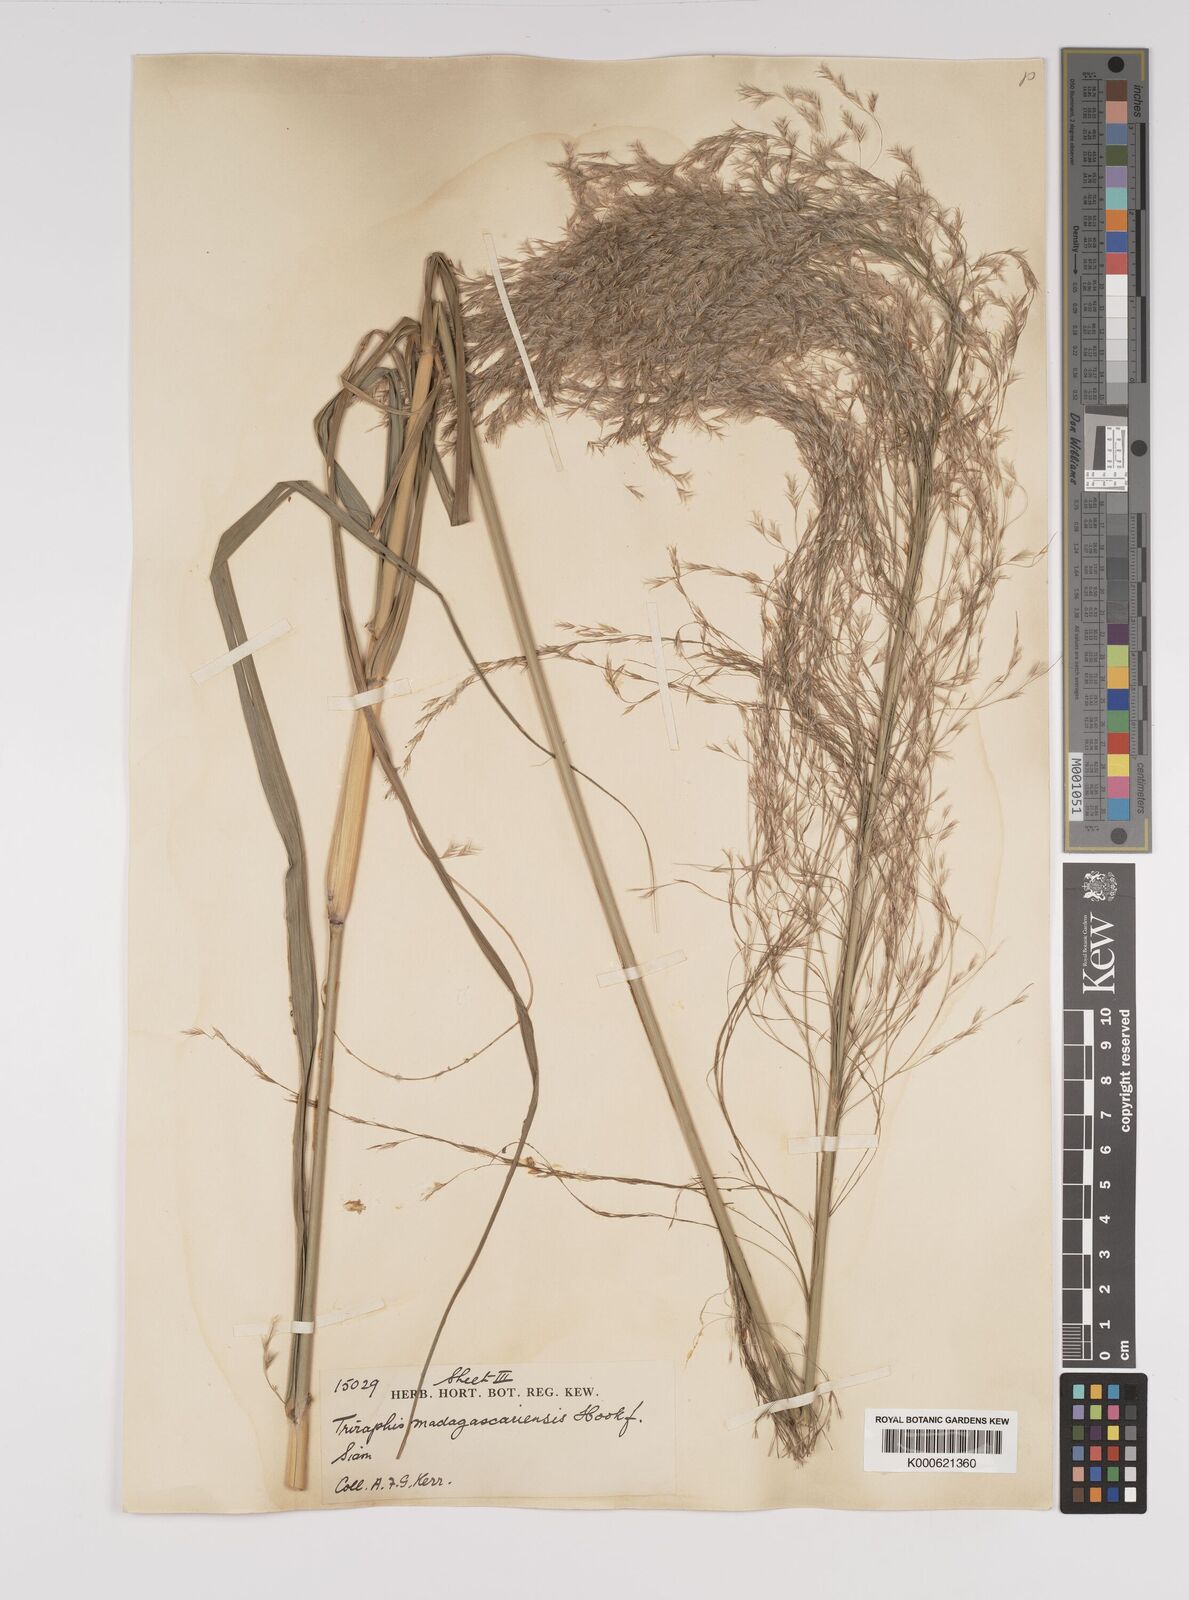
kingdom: Plantae
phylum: Tracheophyta
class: Liliopsida
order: Poales
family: Poaceae
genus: Neyraudia
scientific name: Neyraudia reynaudiana
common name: Silkreed
